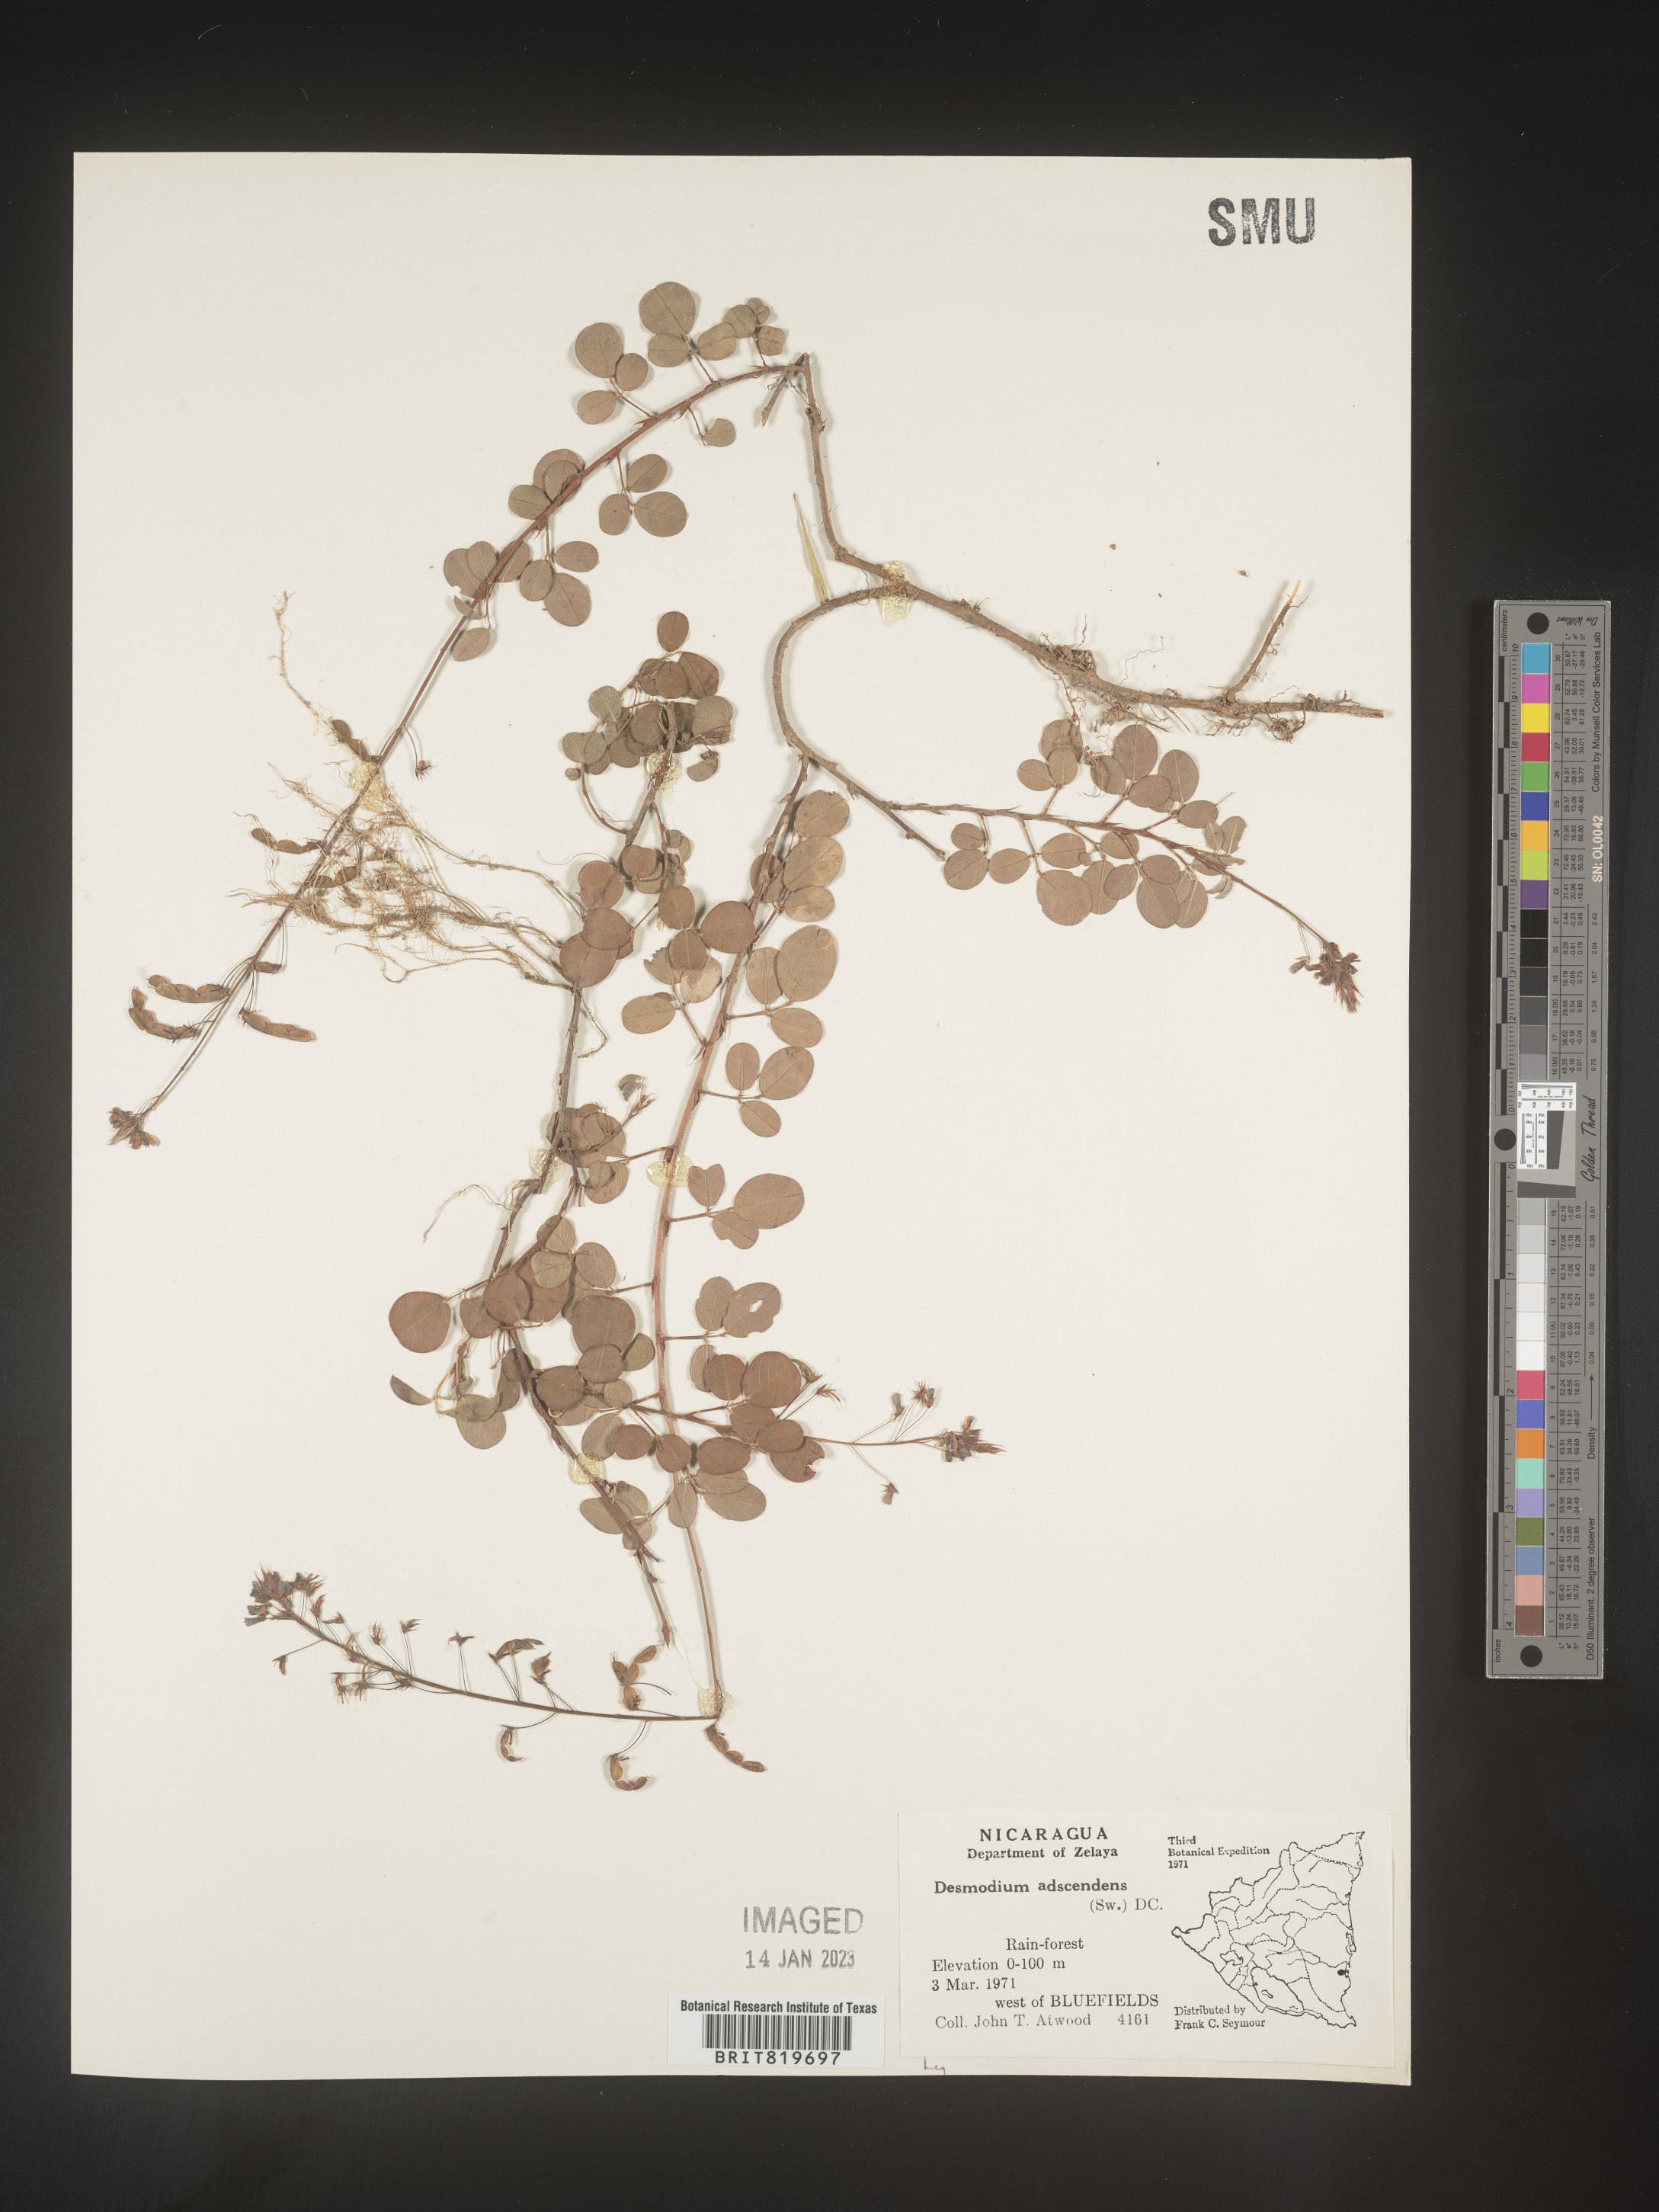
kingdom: Plantae
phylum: Tracheophyta
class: Magnoliopsida
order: Fabales
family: Fabaceae
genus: Desmodium
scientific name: Desmodium
